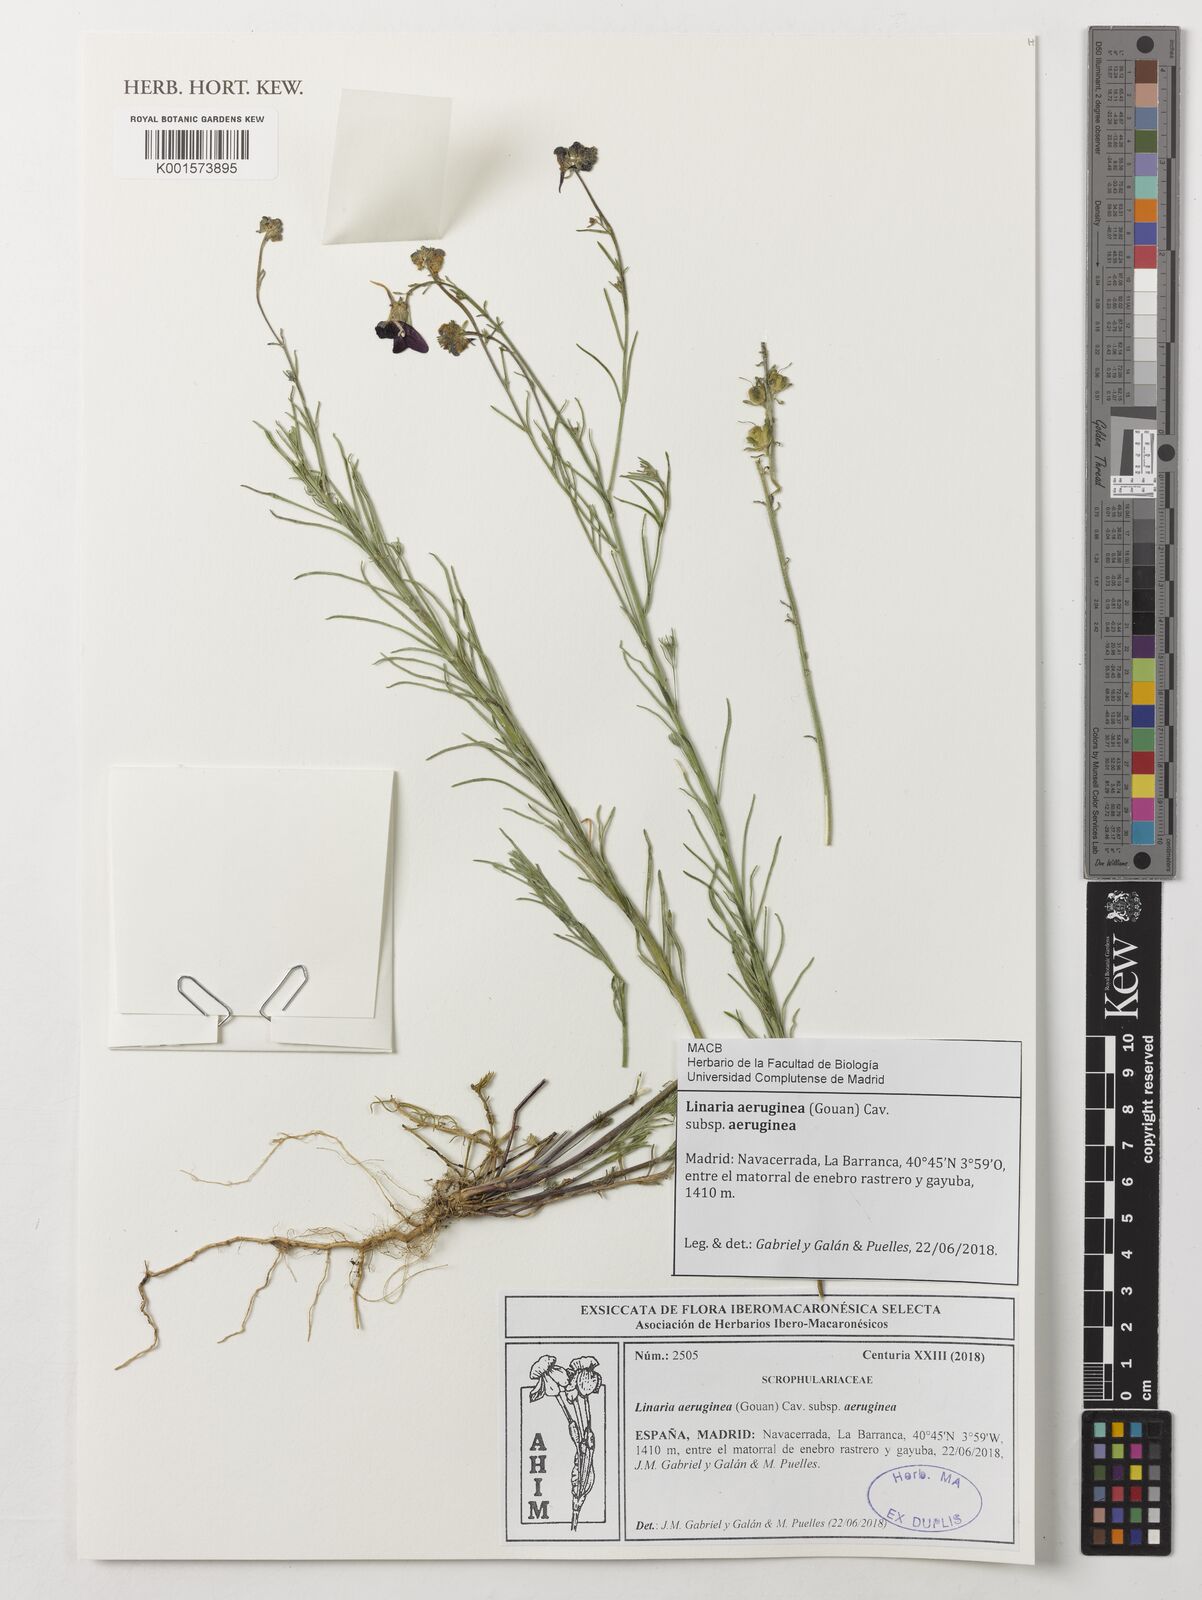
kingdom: Plantae
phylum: Tracheophyta
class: Magnoliopsida
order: Lamiales
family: Plantaginaceae
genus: Linaria
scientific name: Linaria aeruginea
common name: Roadside toadflax
